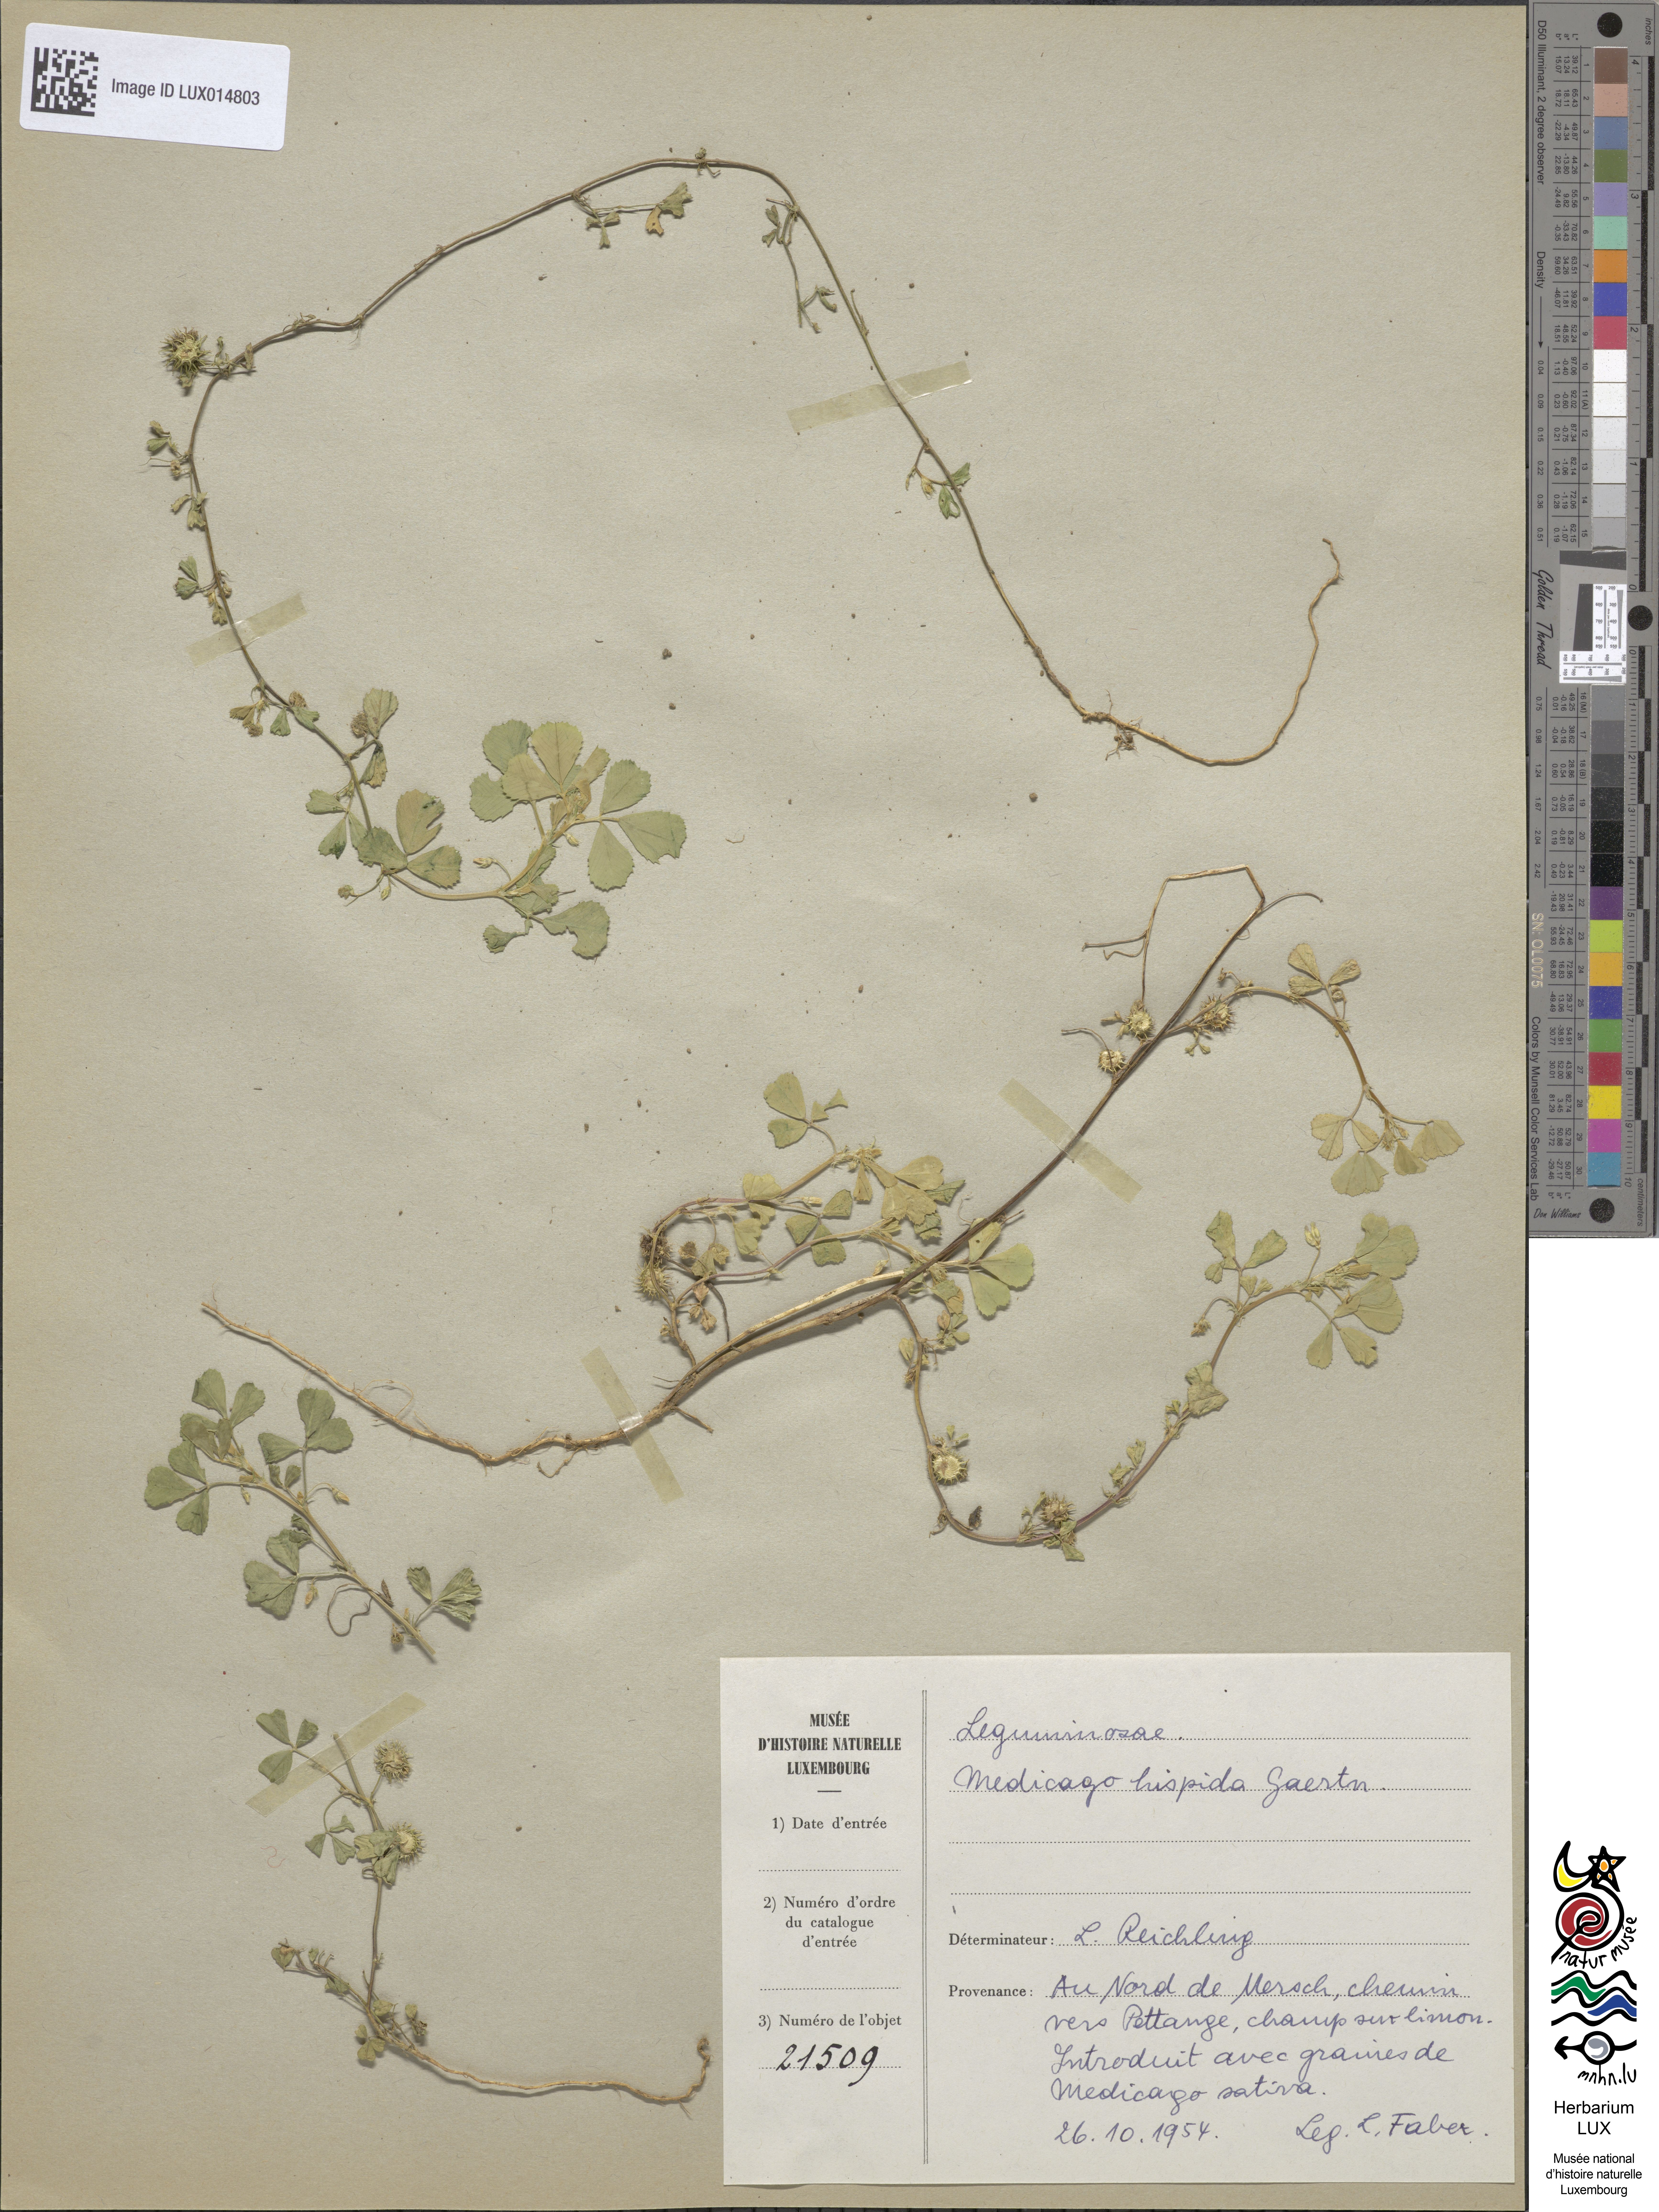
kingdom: Plantae
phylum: Tracheophyta
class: Magnoliopsida
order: Fabales
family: Fabaceae
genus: Medicago
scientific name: Medicago polymorpha
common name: Burclover
